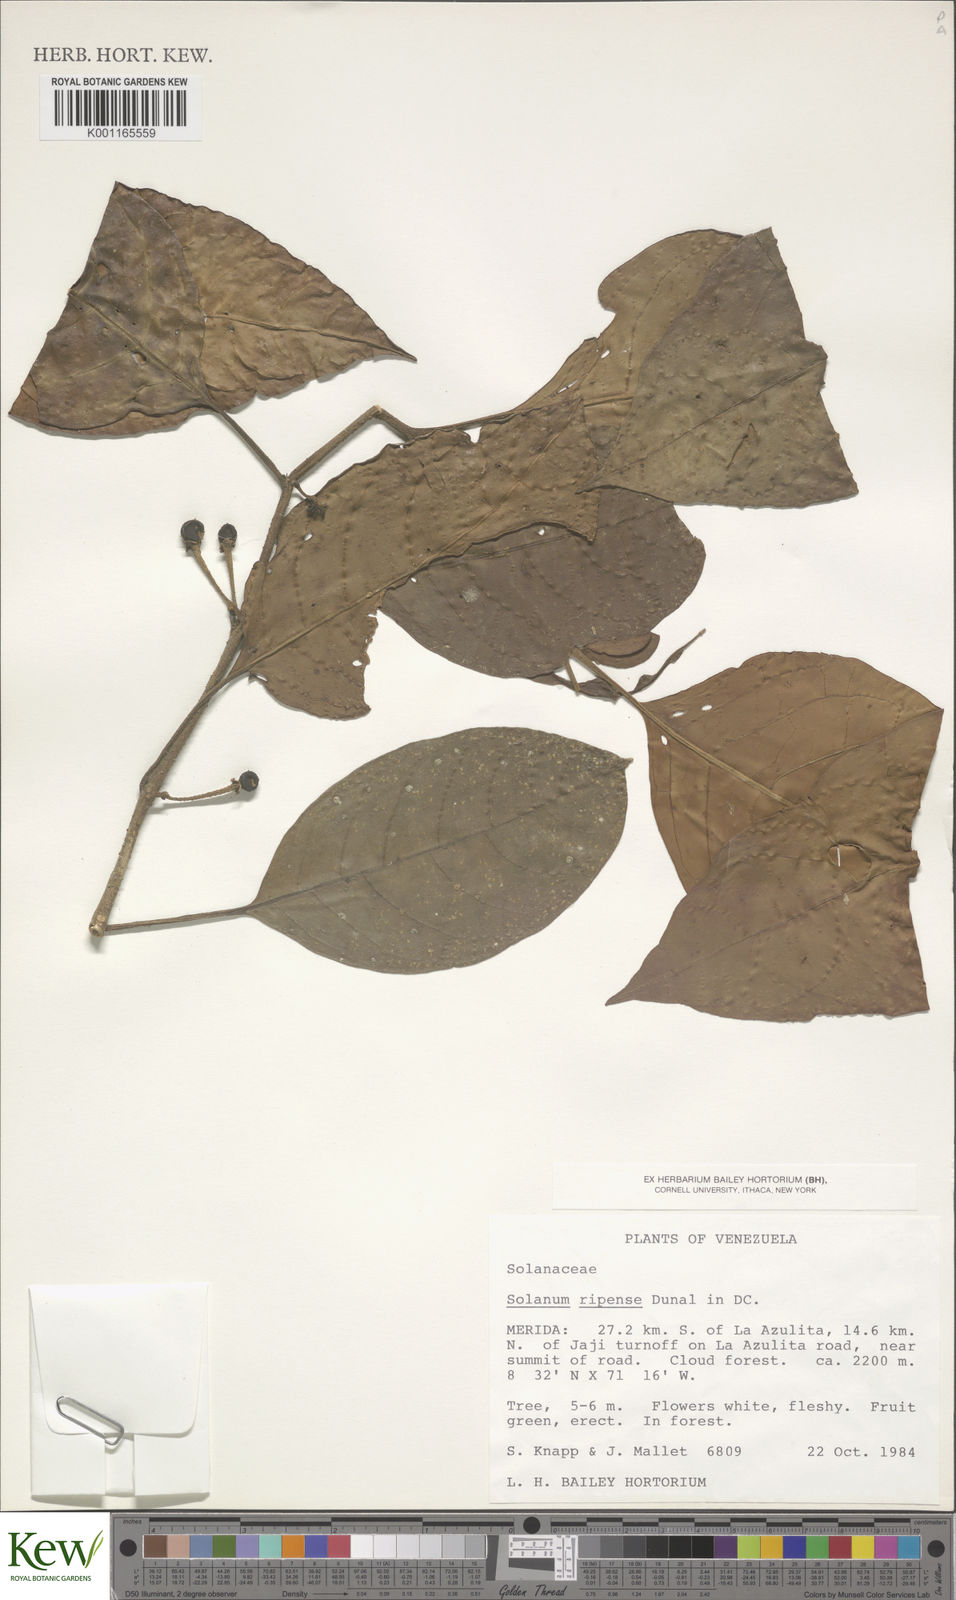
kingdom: Plantae
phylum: Tracheophyta
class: Magnoliopsida
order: Solanales
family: Solanaceae
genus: Solanum
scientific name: Solanum ripense
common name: Mérida nightshade
